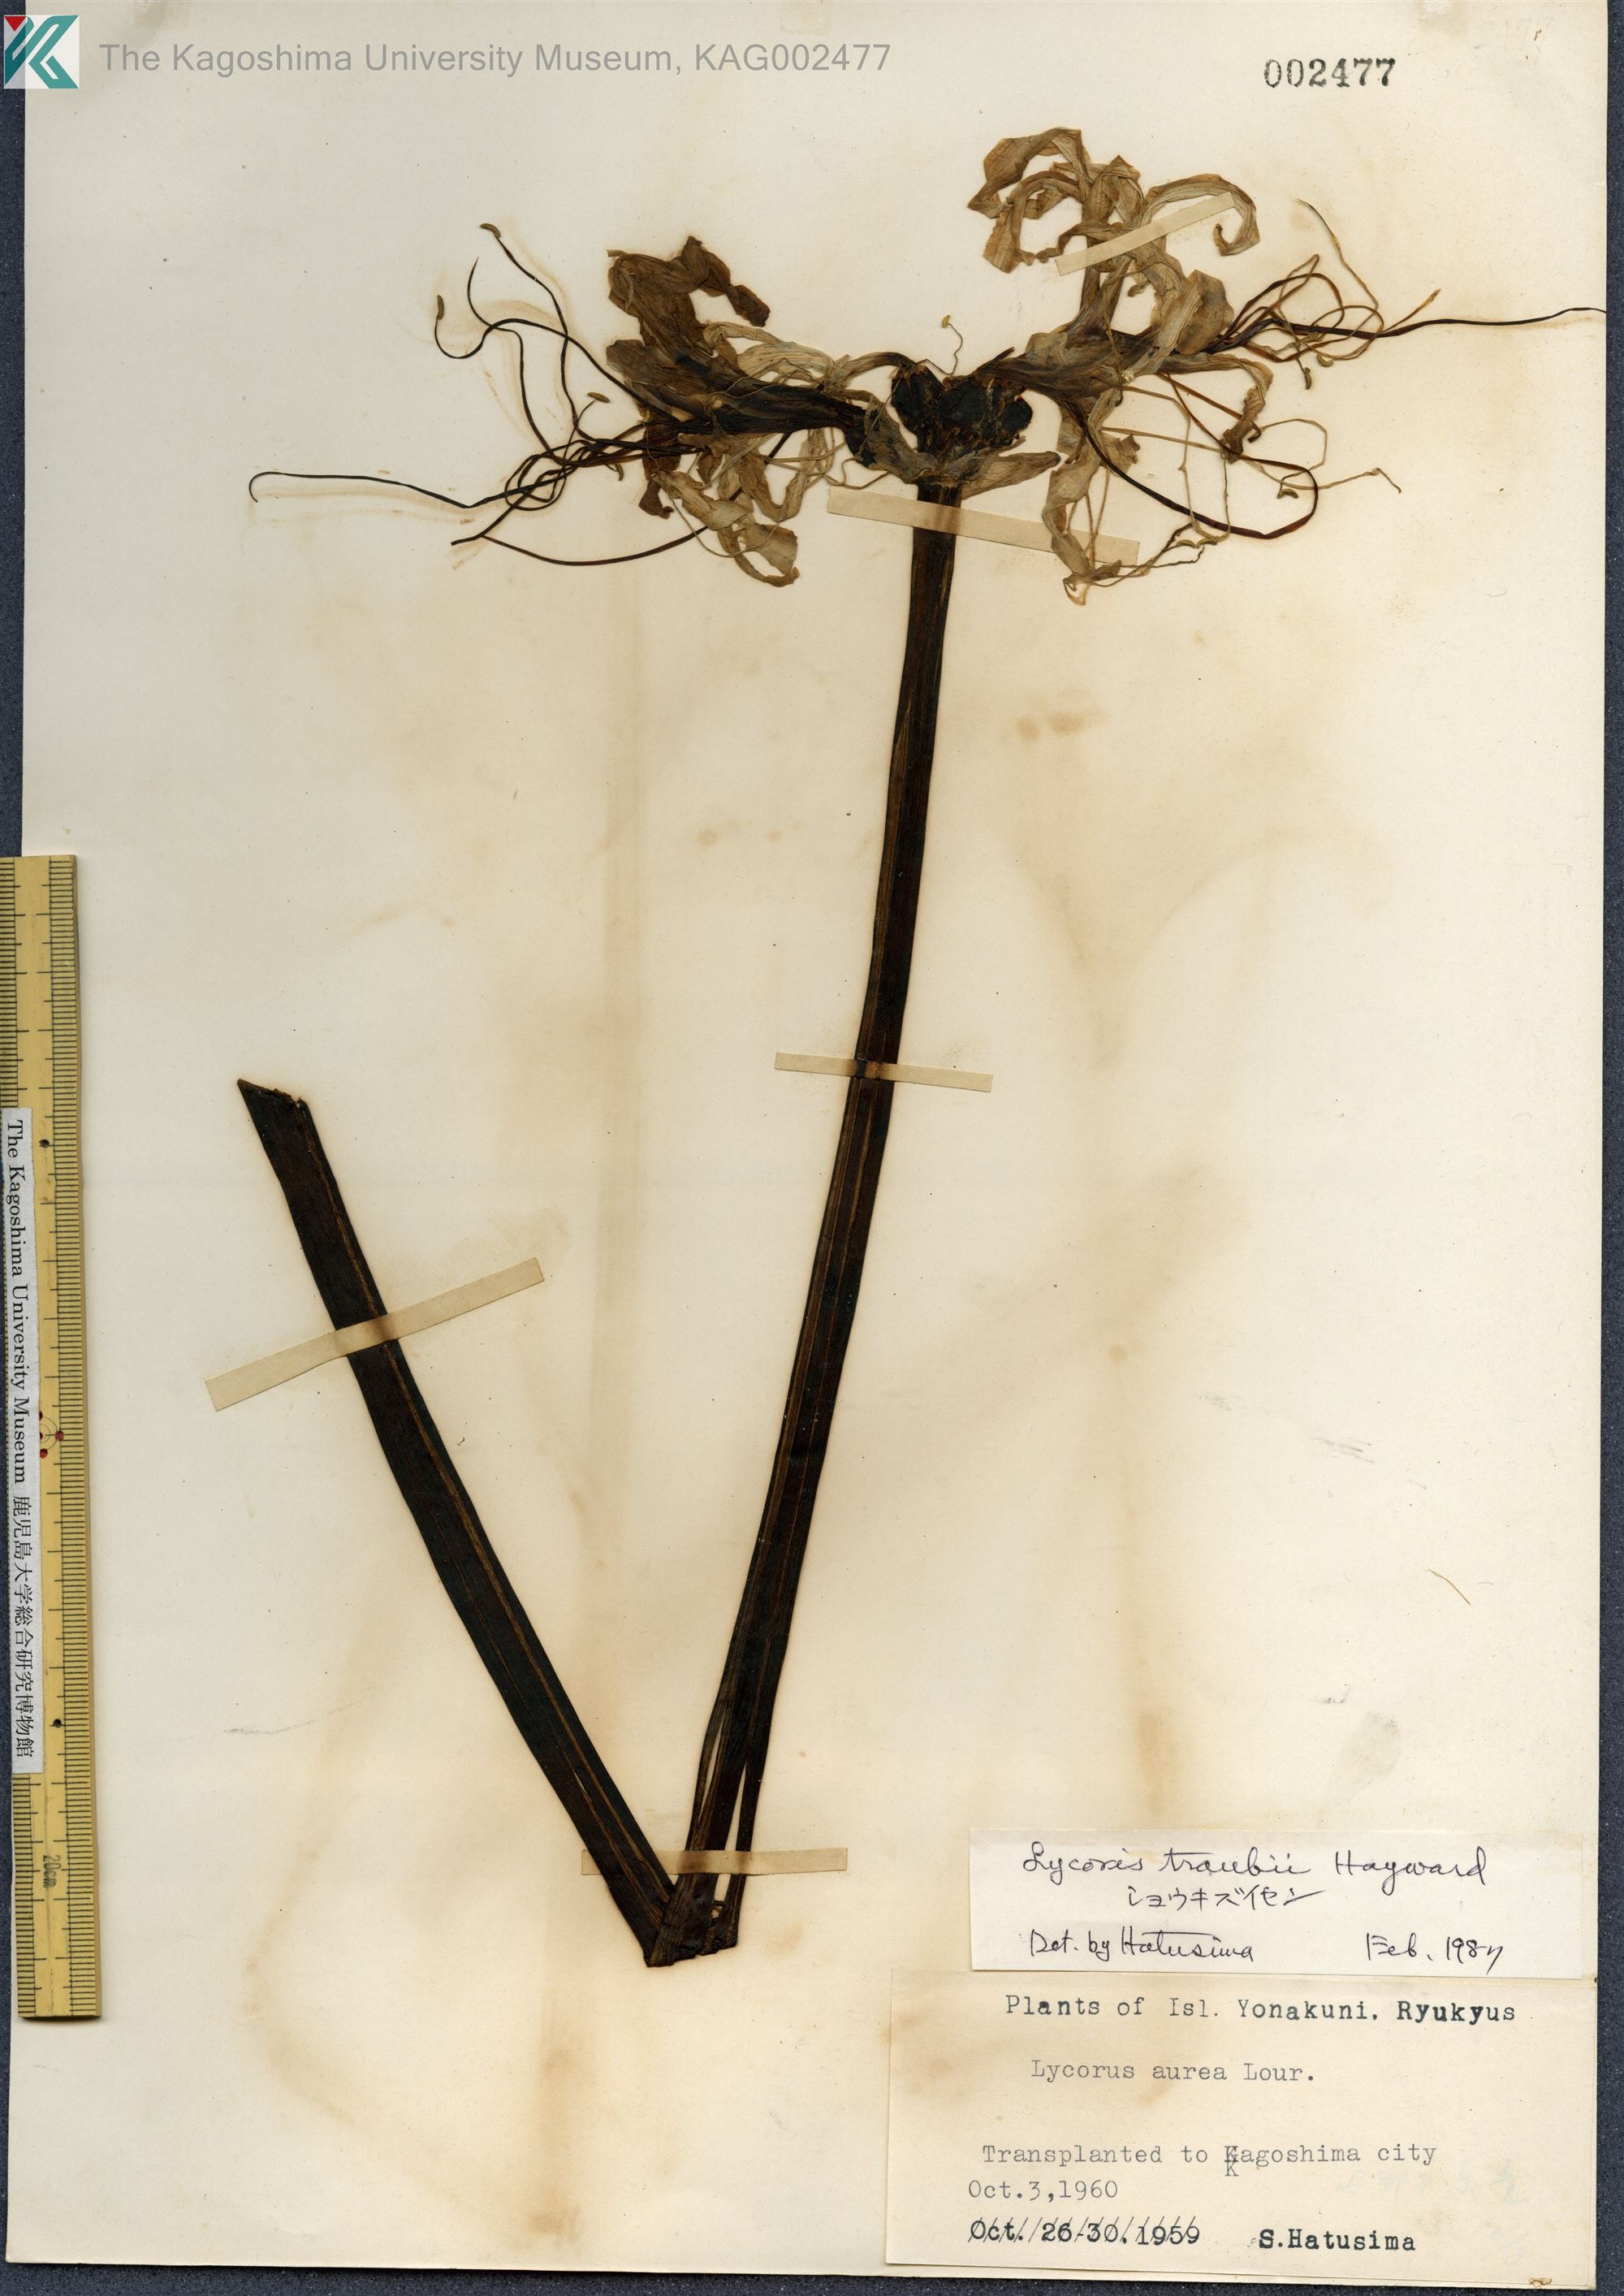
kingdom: Plantae
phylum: Tracheophyta
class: Liliopsida
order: Asparagales
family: Amaryllidaceae
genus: Lycoris
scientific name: Lycoris traubii
